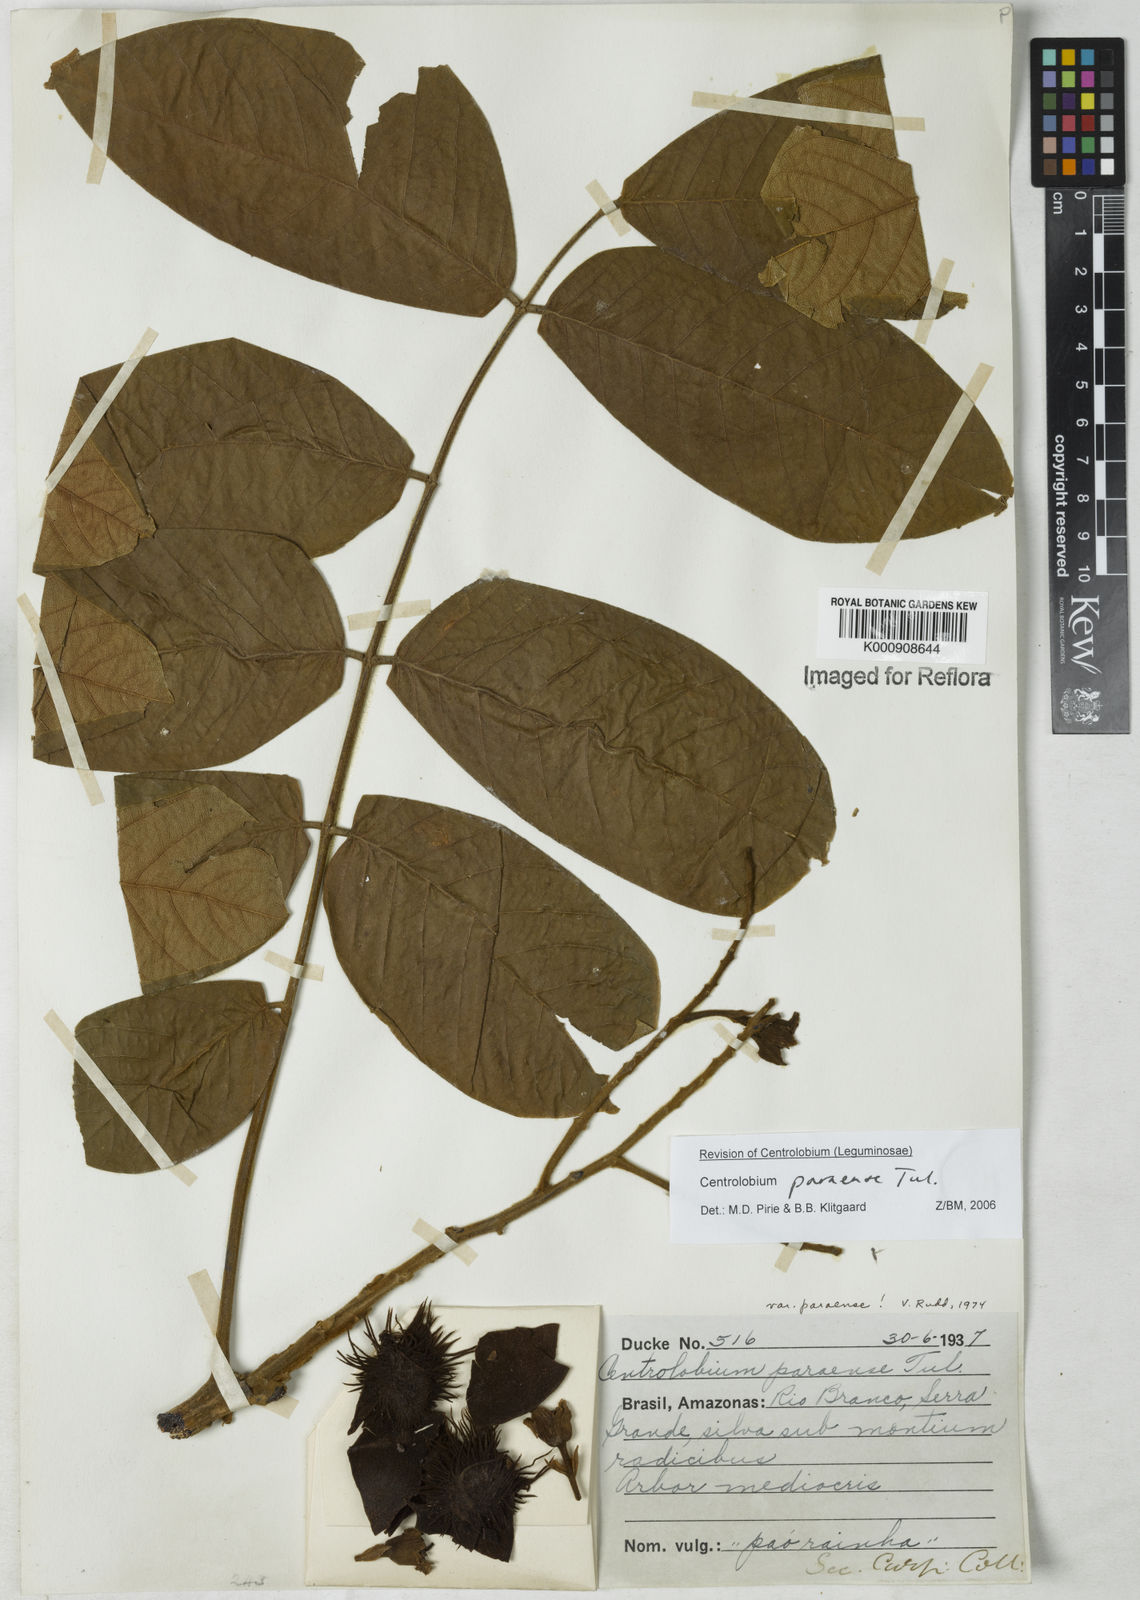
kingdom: Plantae
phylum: Tracheophyta
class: Magnoliopsida
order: Fabales
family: Fabaceae
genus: Centrolobium
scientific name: Centrolobium paraense
